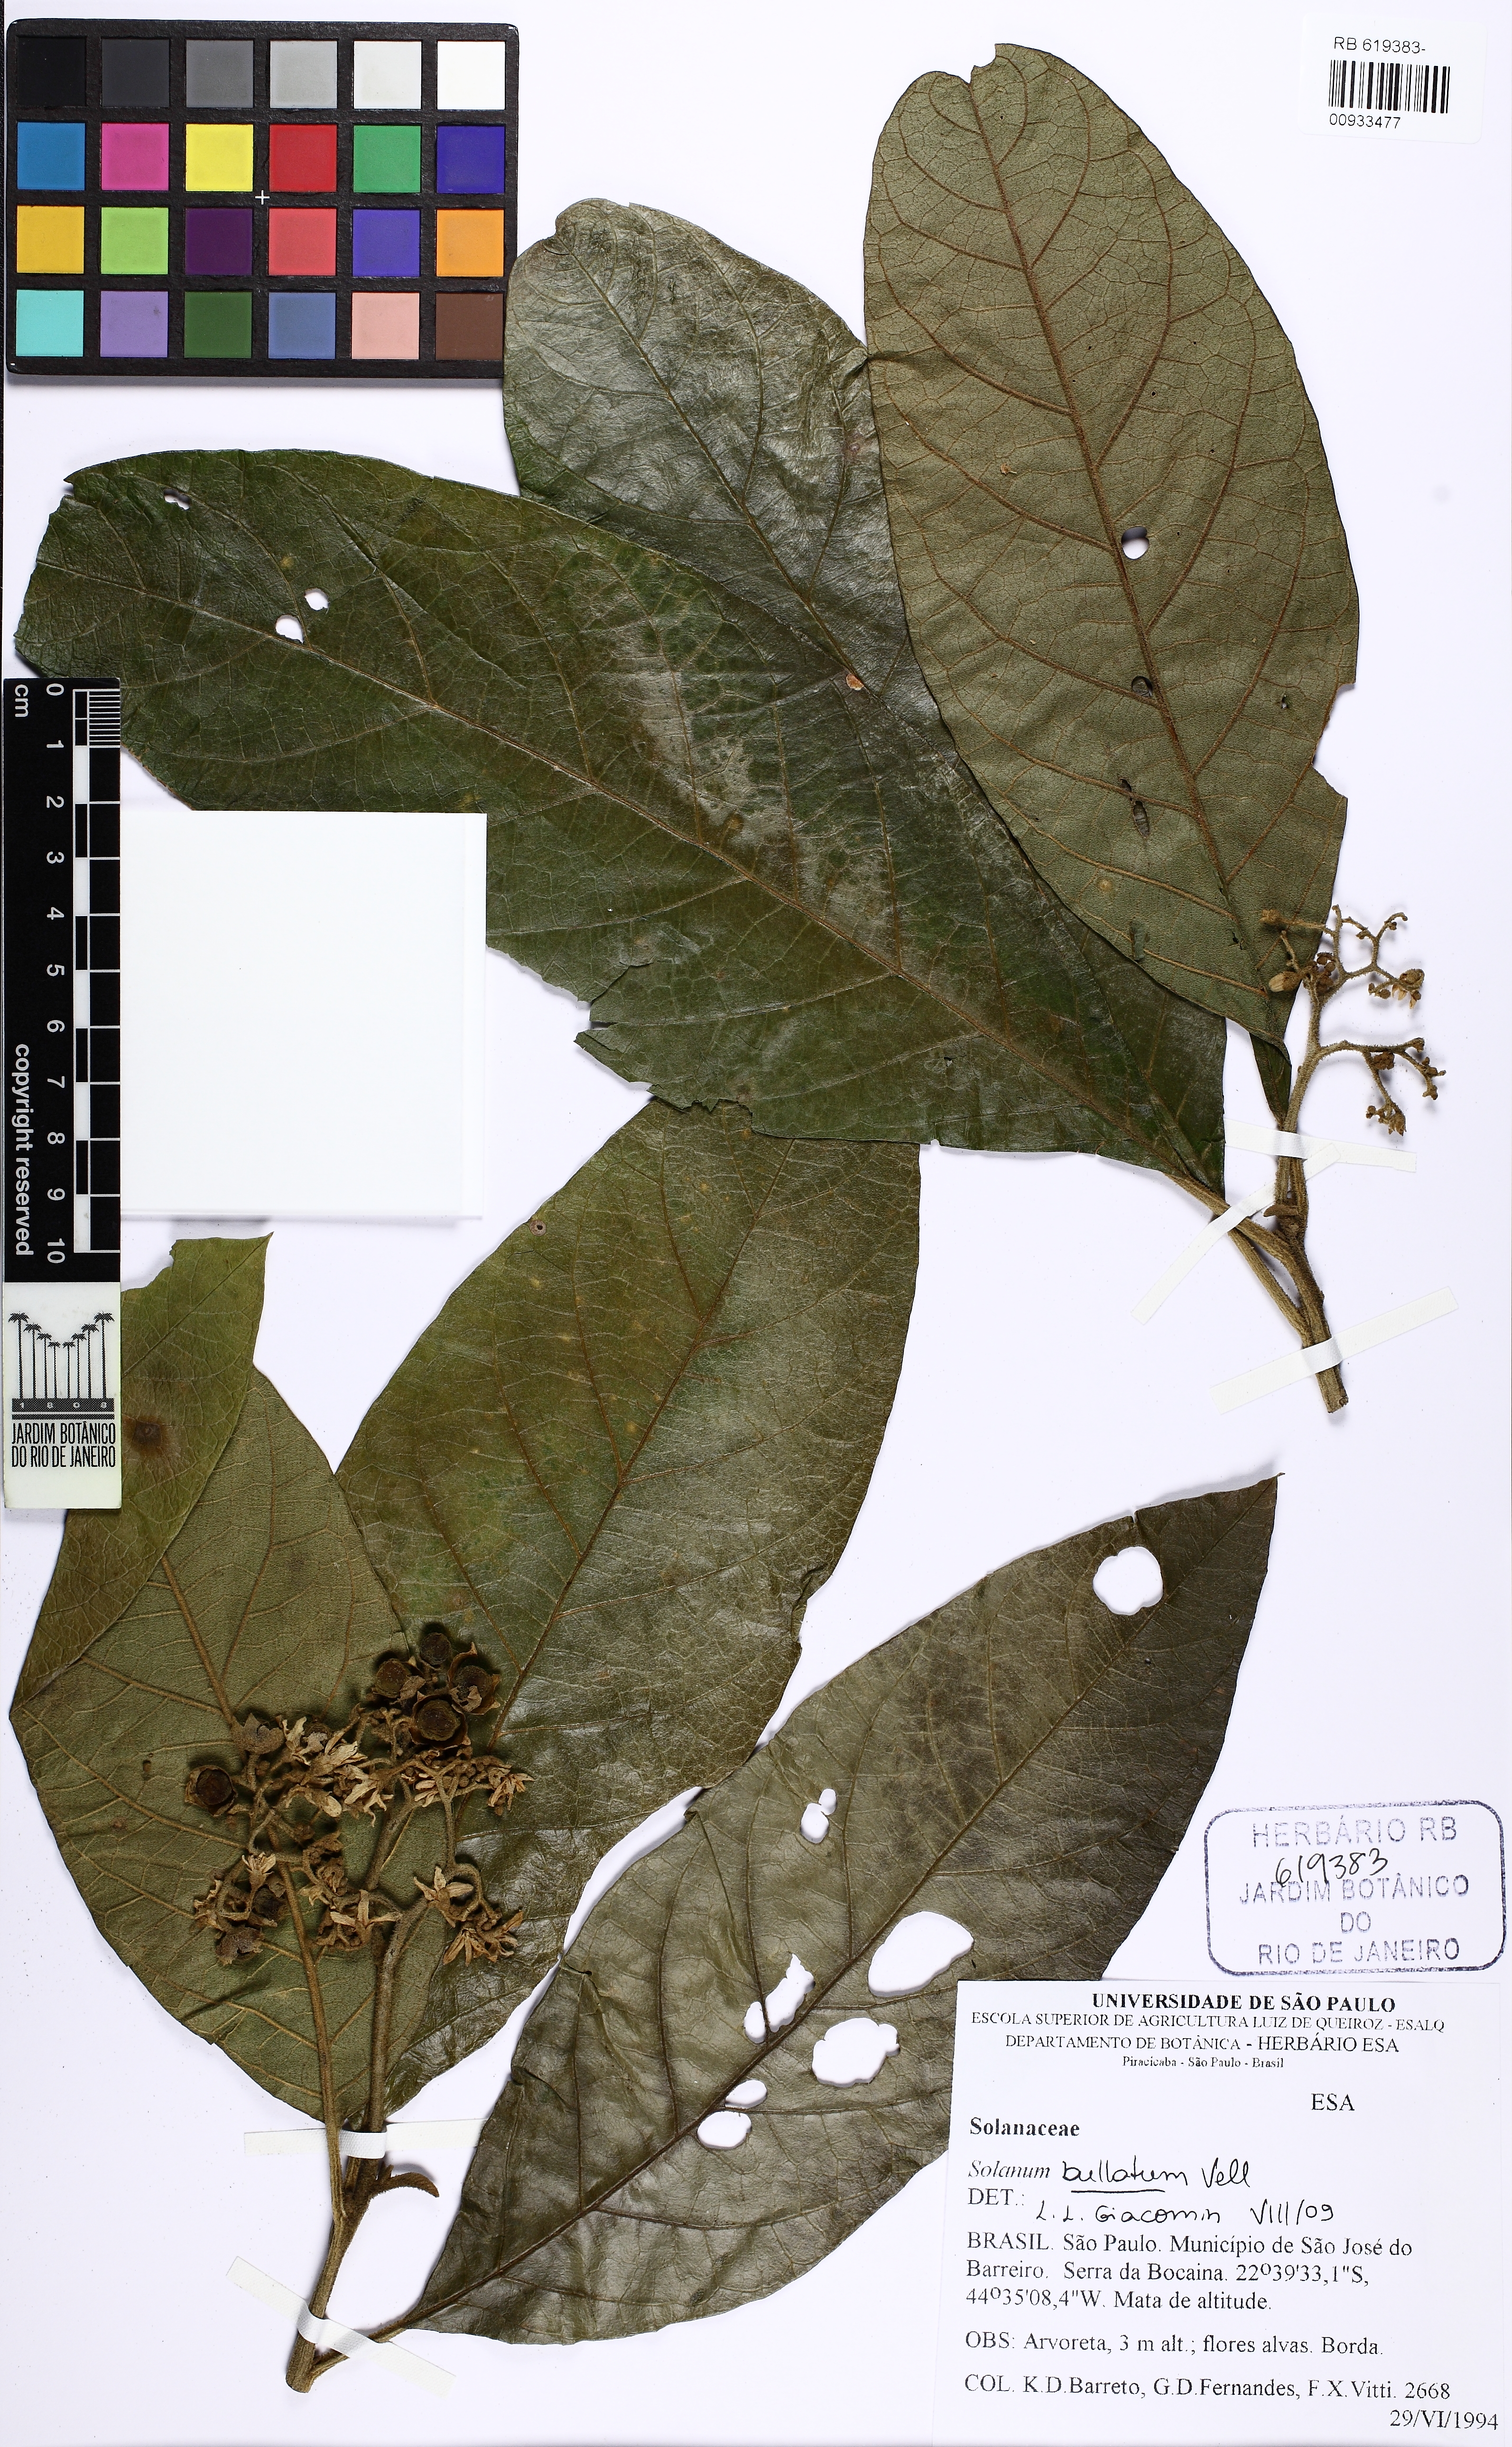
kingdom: Plantae
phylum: Tracheophyta
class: Magnoliopsida
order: Solanales
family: Solanaceae
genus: Solanum
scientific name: Solanum bullatum
